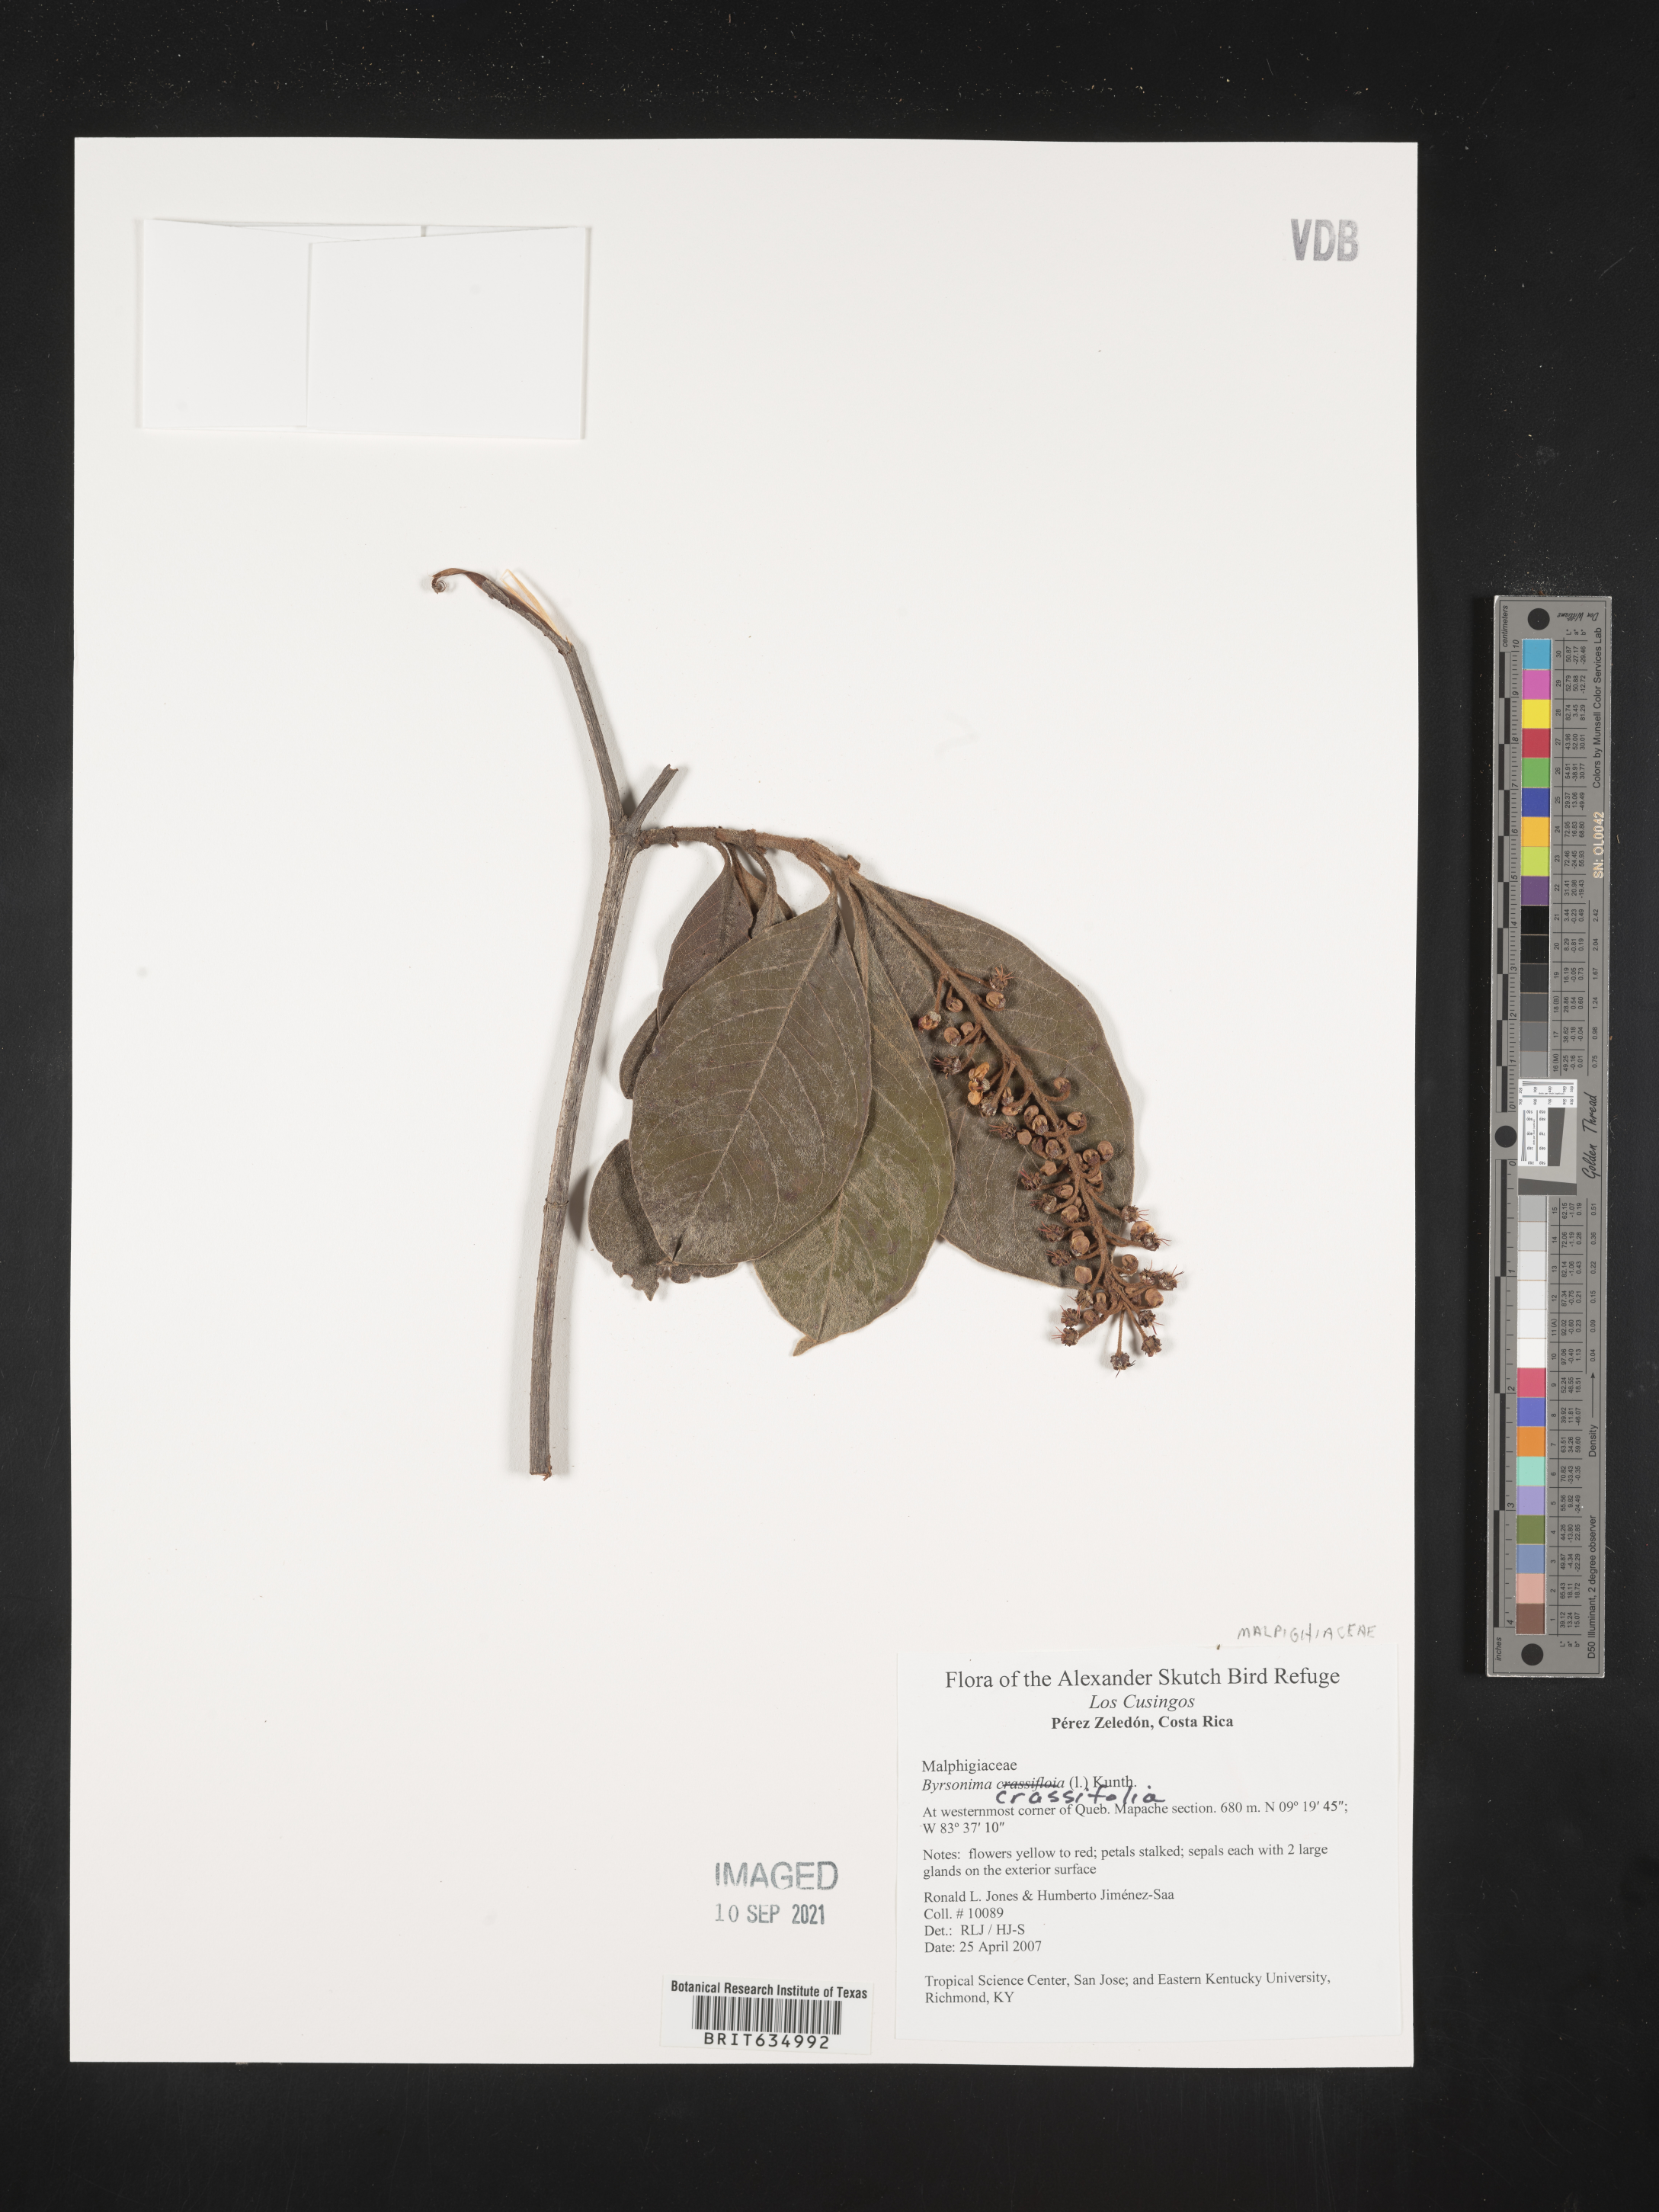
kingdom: Plantae
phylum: Tracheophyta
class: Magnoliopsida
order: Malpighiales
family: Malpighiaceae
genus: Byrsonima
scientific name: Byrsonima
